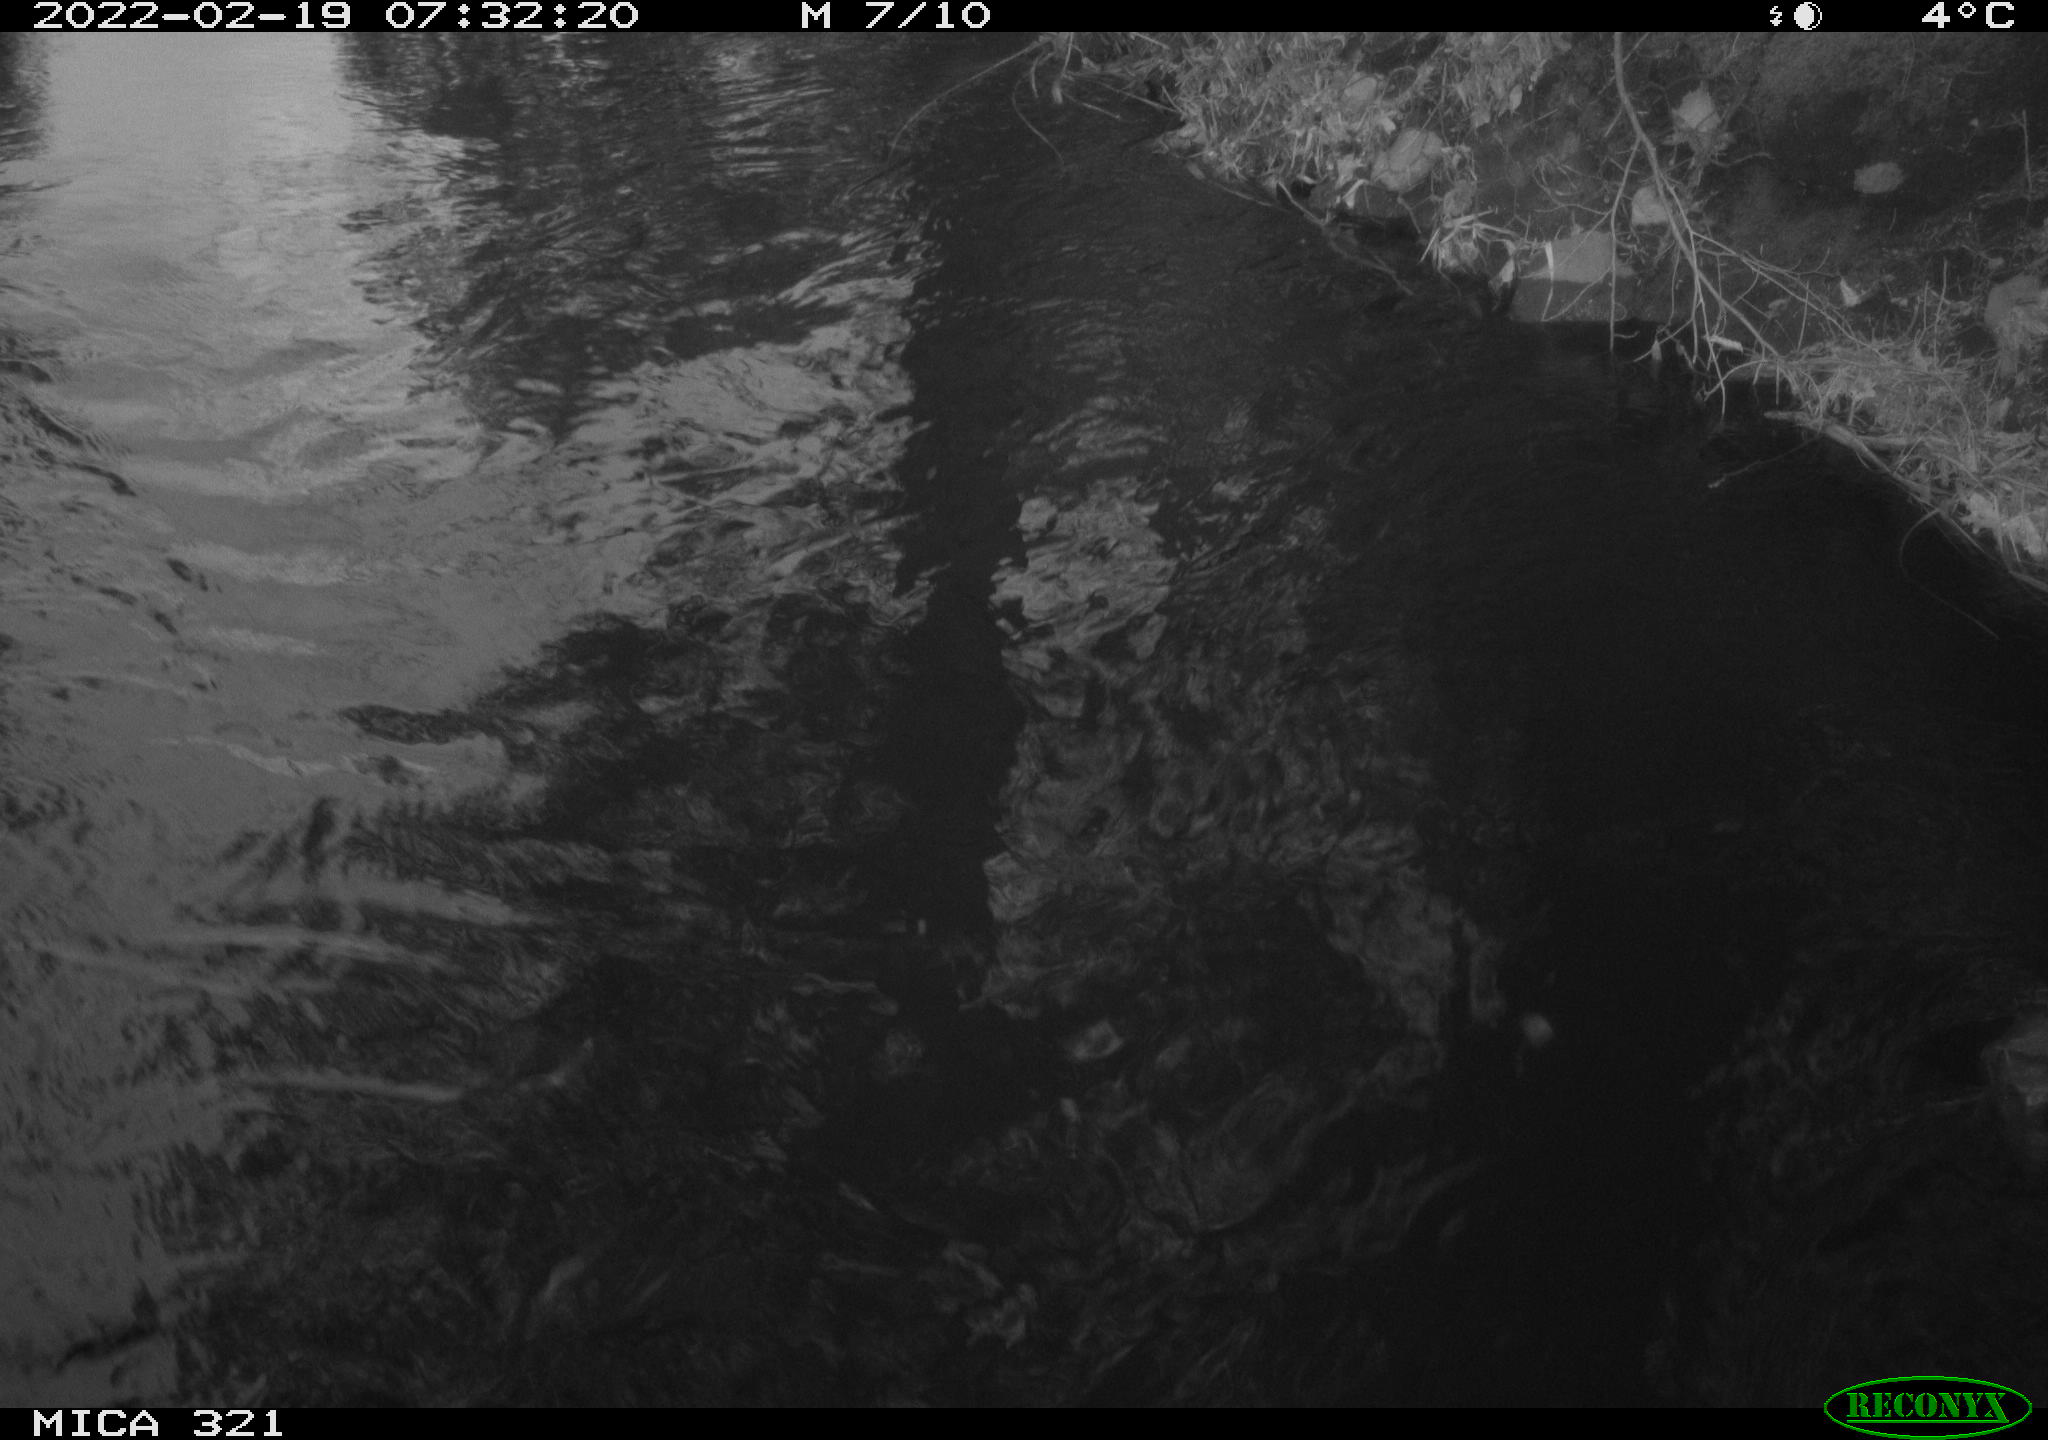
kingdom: Animalia
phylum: Chordata
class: Aves
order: Anseriformes
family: Anatidae
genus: Anas
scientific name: Anas platyrhynchos
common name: Mallard
